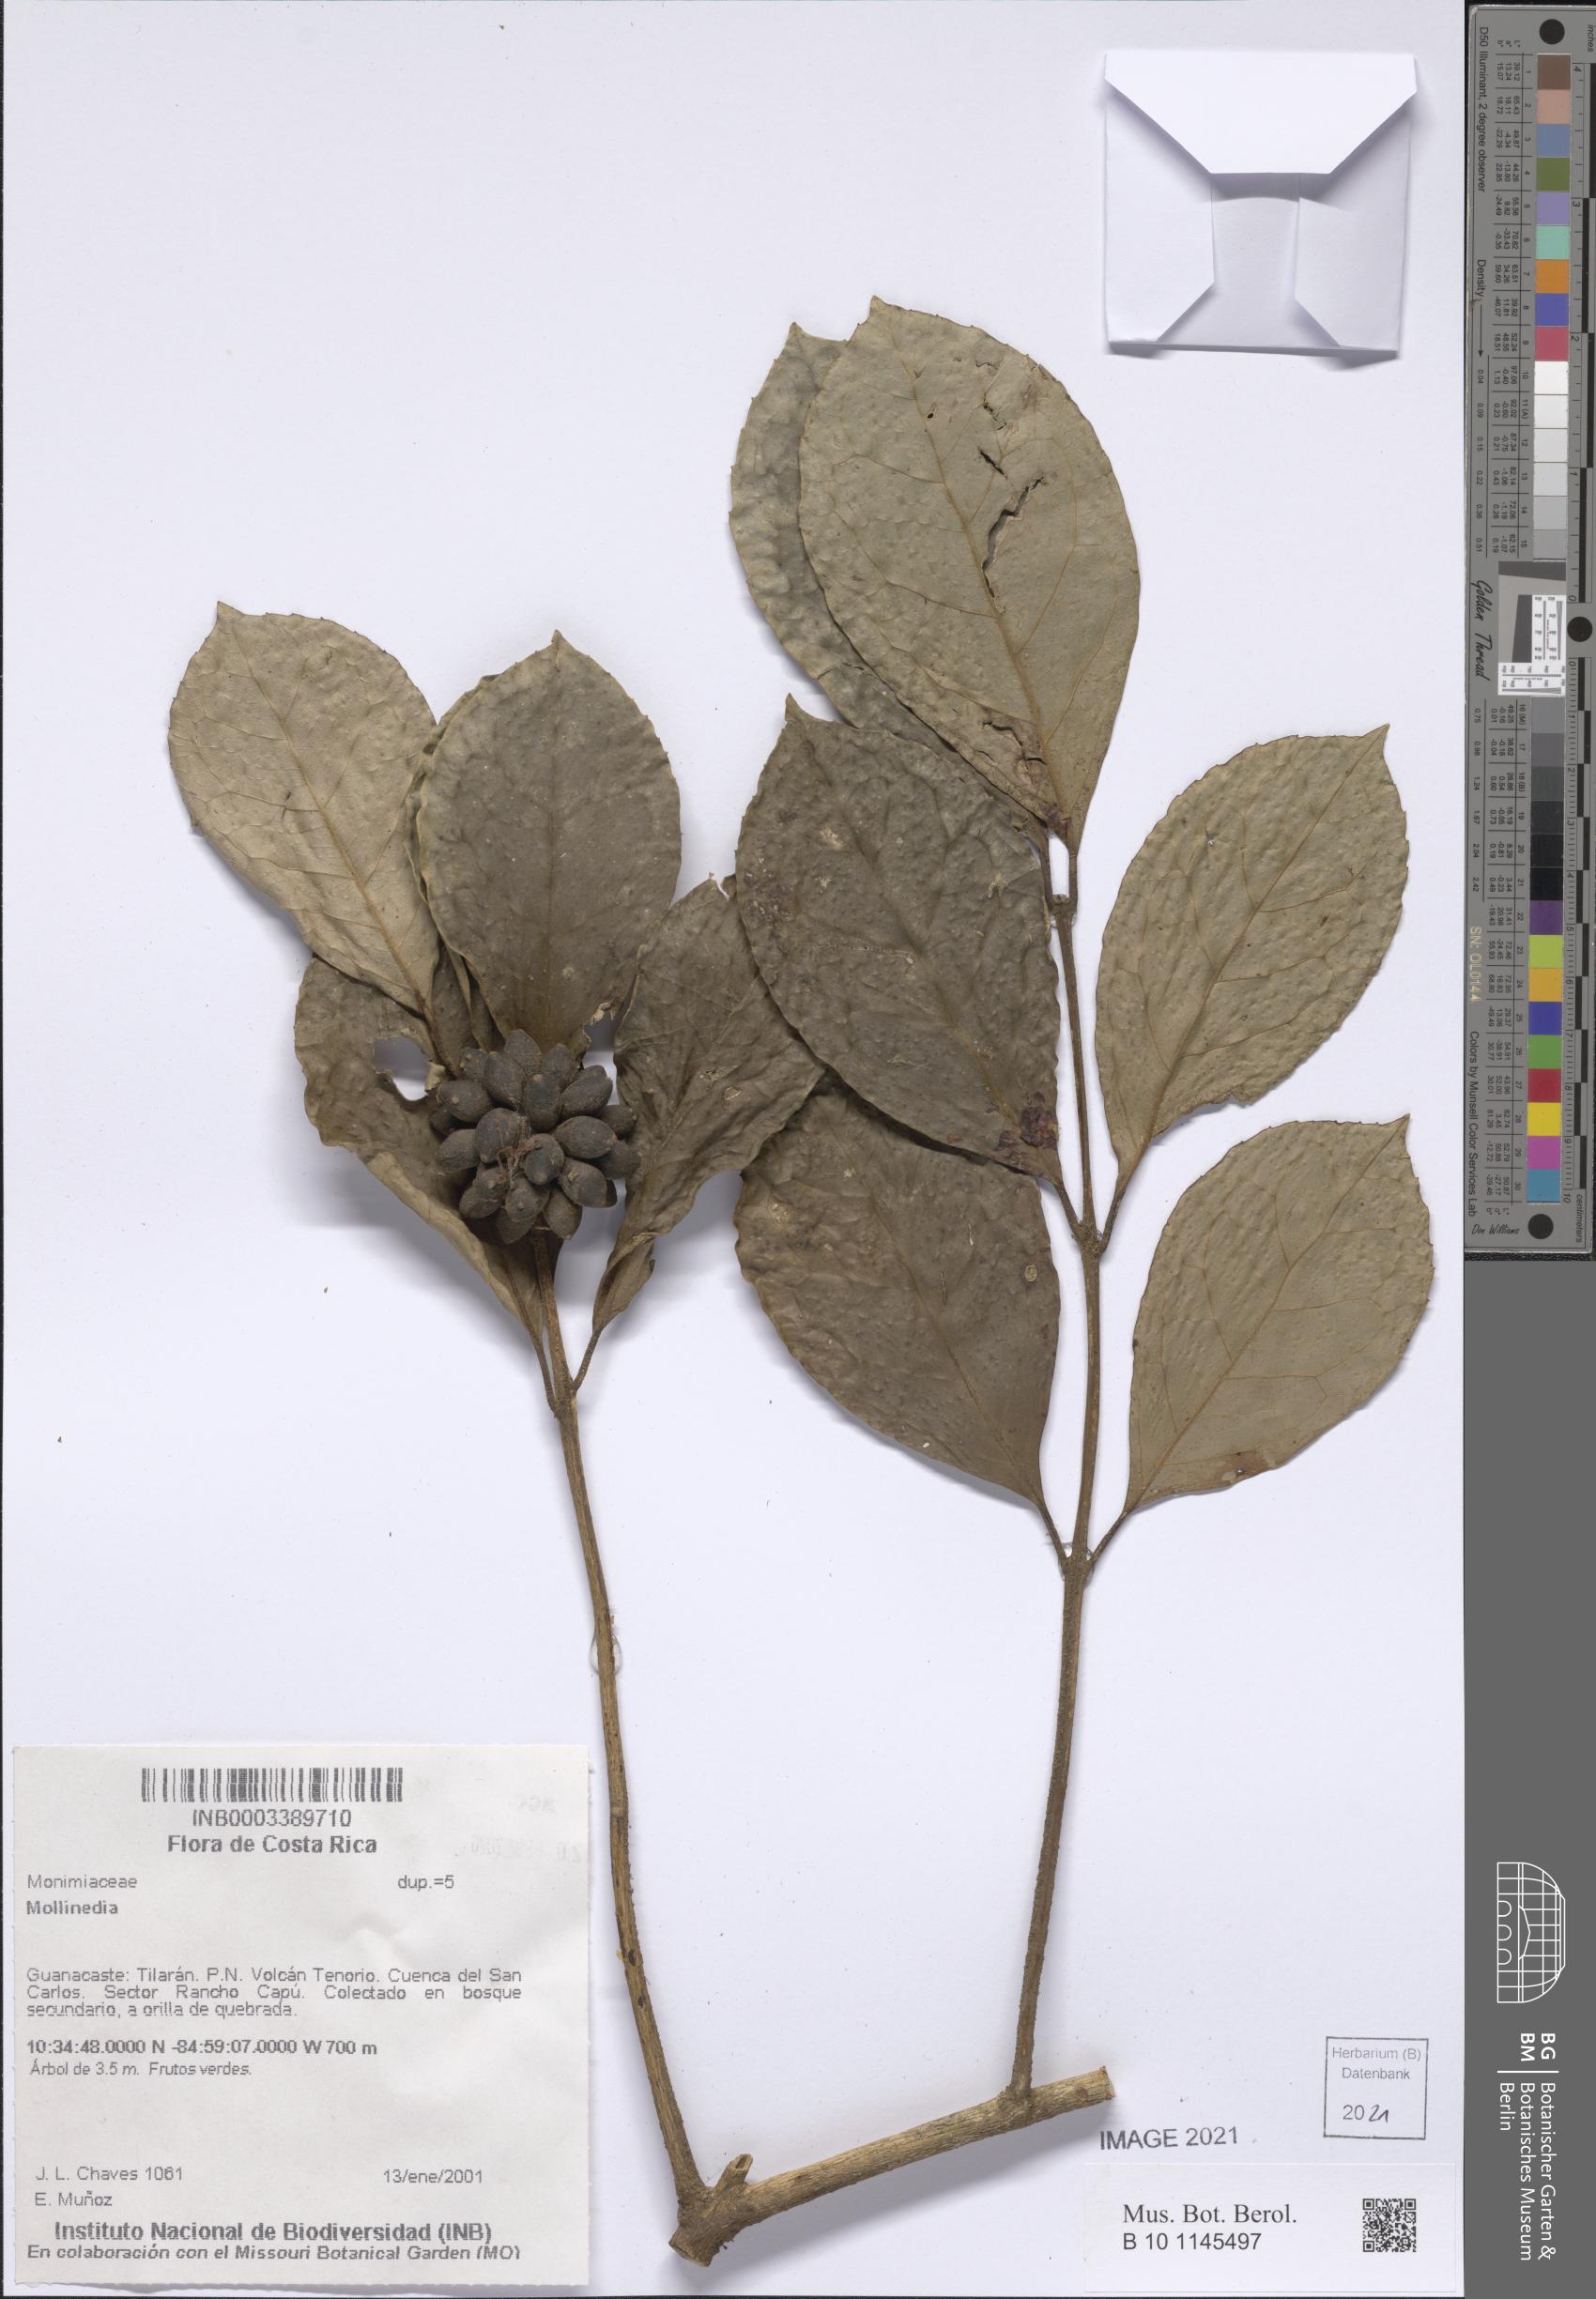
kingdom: Plantae
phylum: Tracheophyta
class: Magnoliopsida
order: Laurales
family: Monimiaceae
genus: Mollinedia
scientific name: Mollinedia costaricensis
